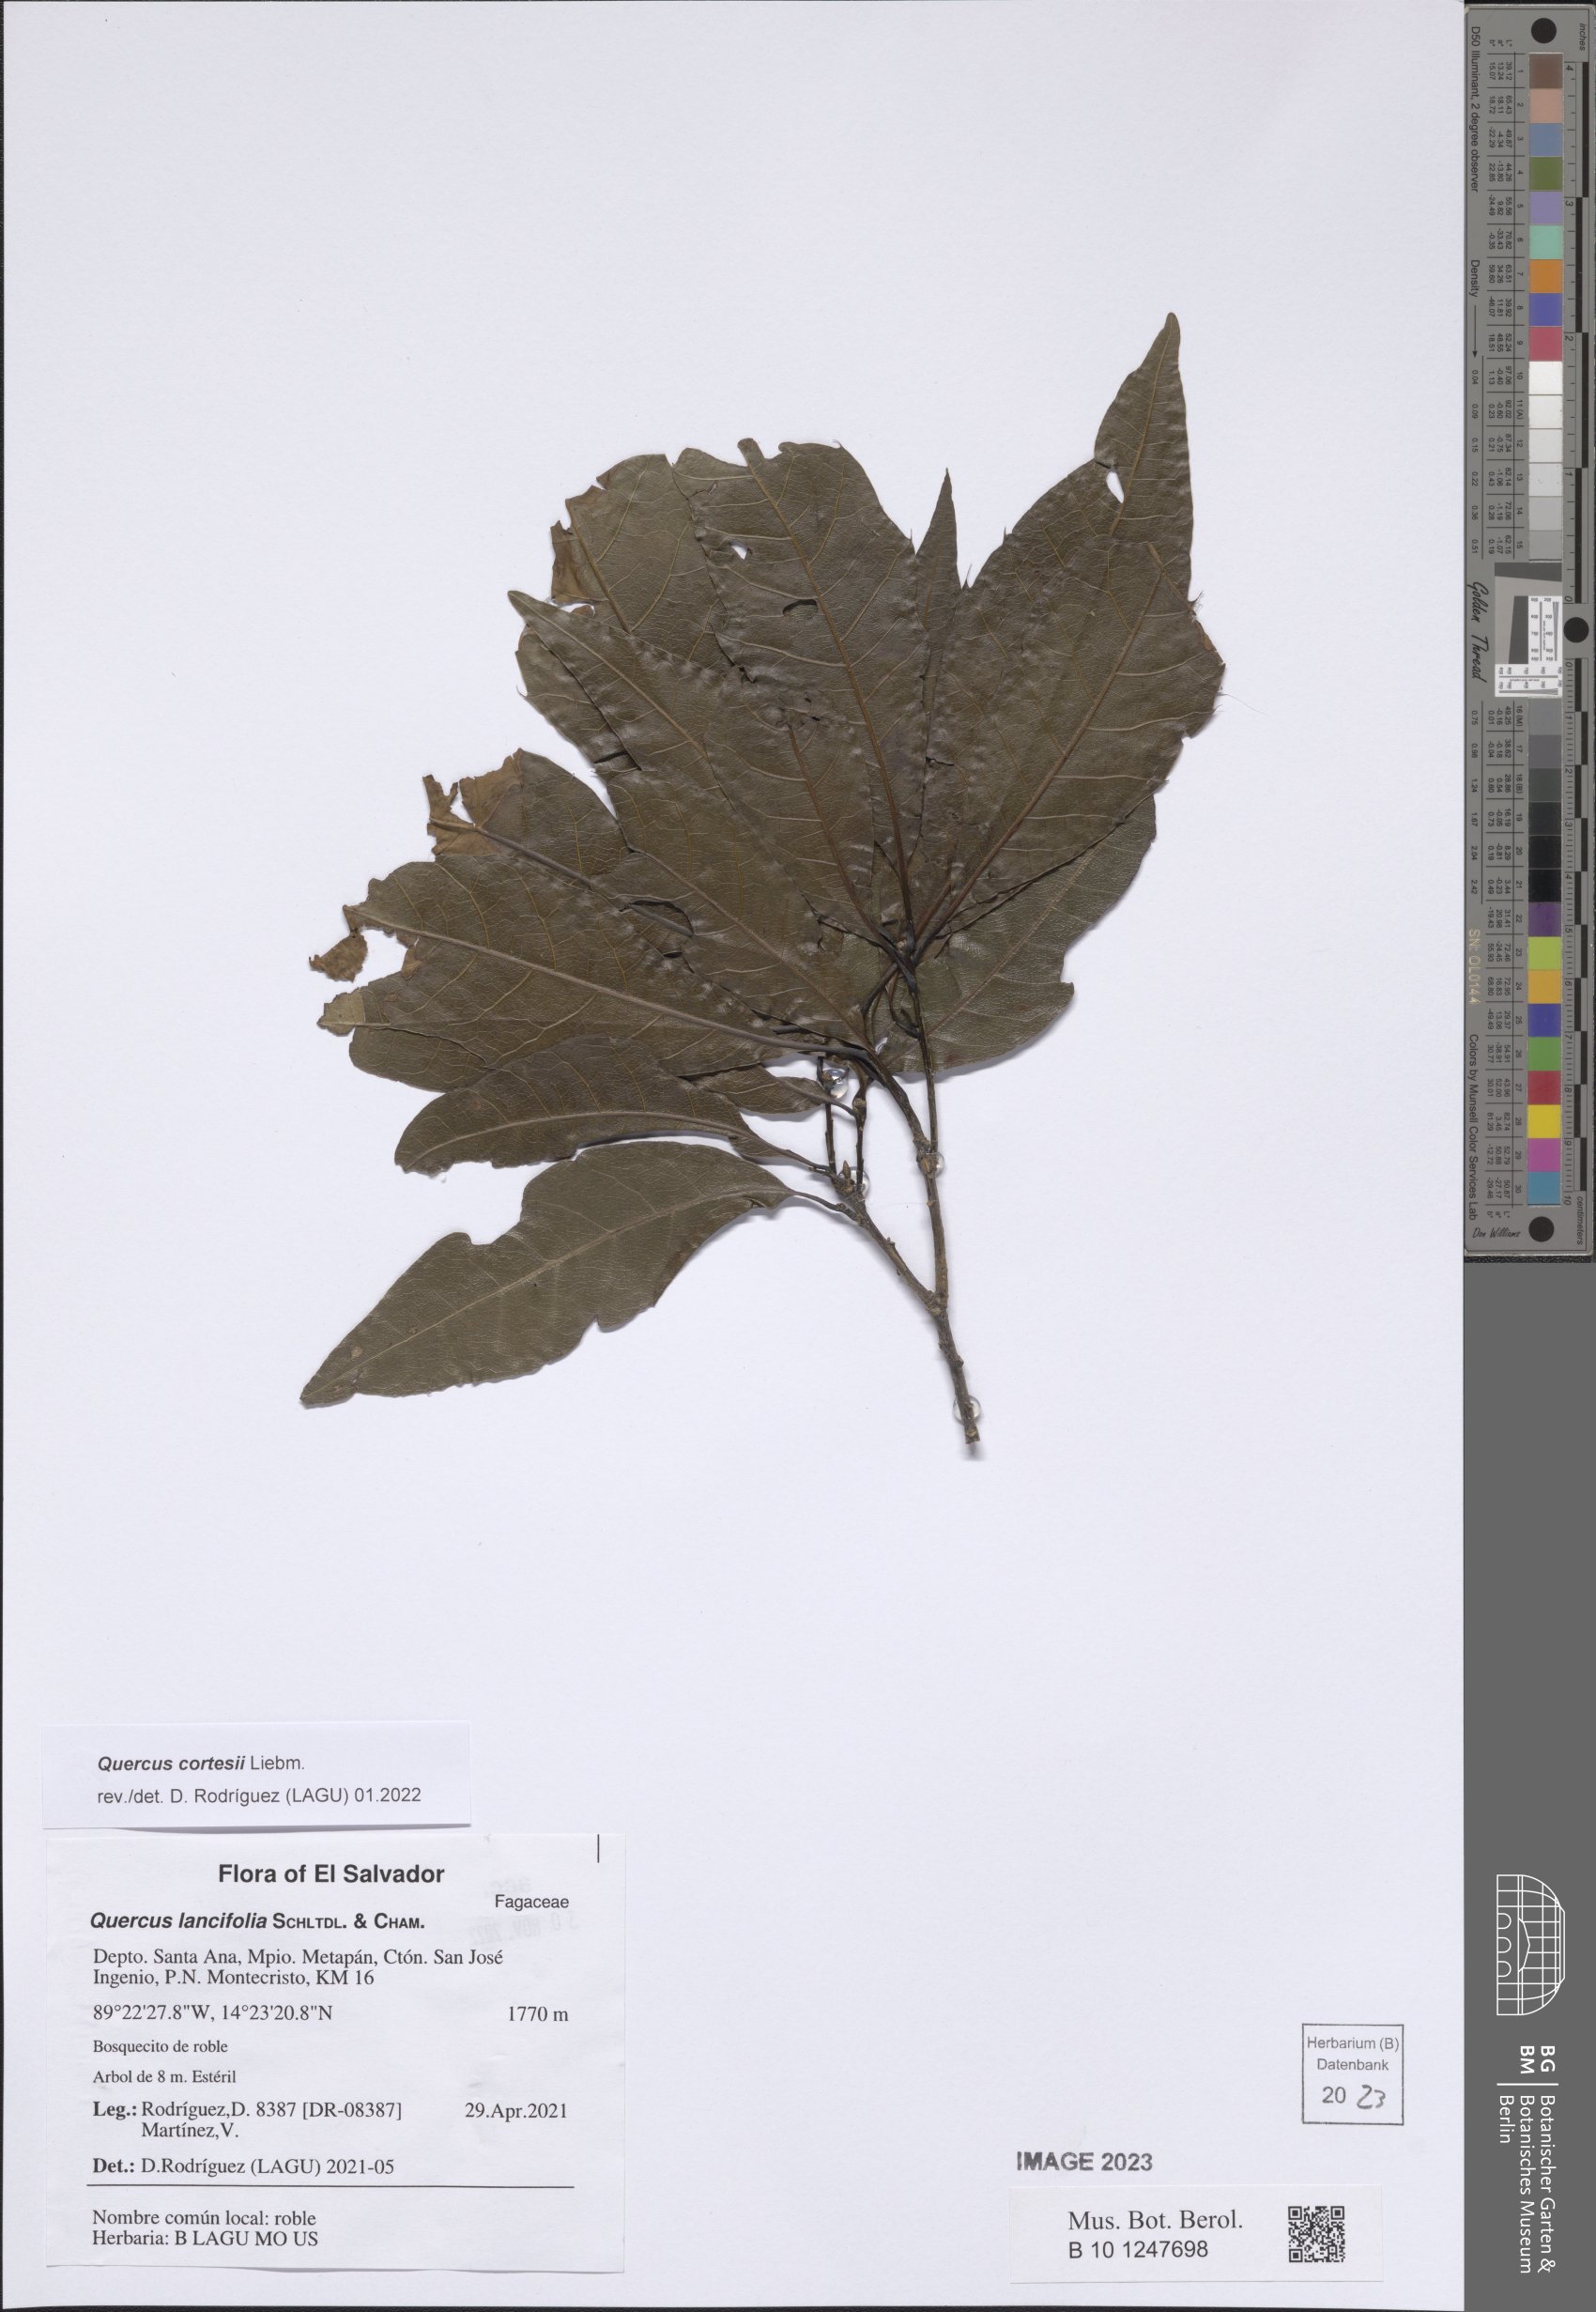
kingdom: Plantae
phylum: Tracheophyta
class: Magnoliopsida
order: Fagales
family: Fagaceae
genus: Quercus
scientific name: Quercus cortesii
